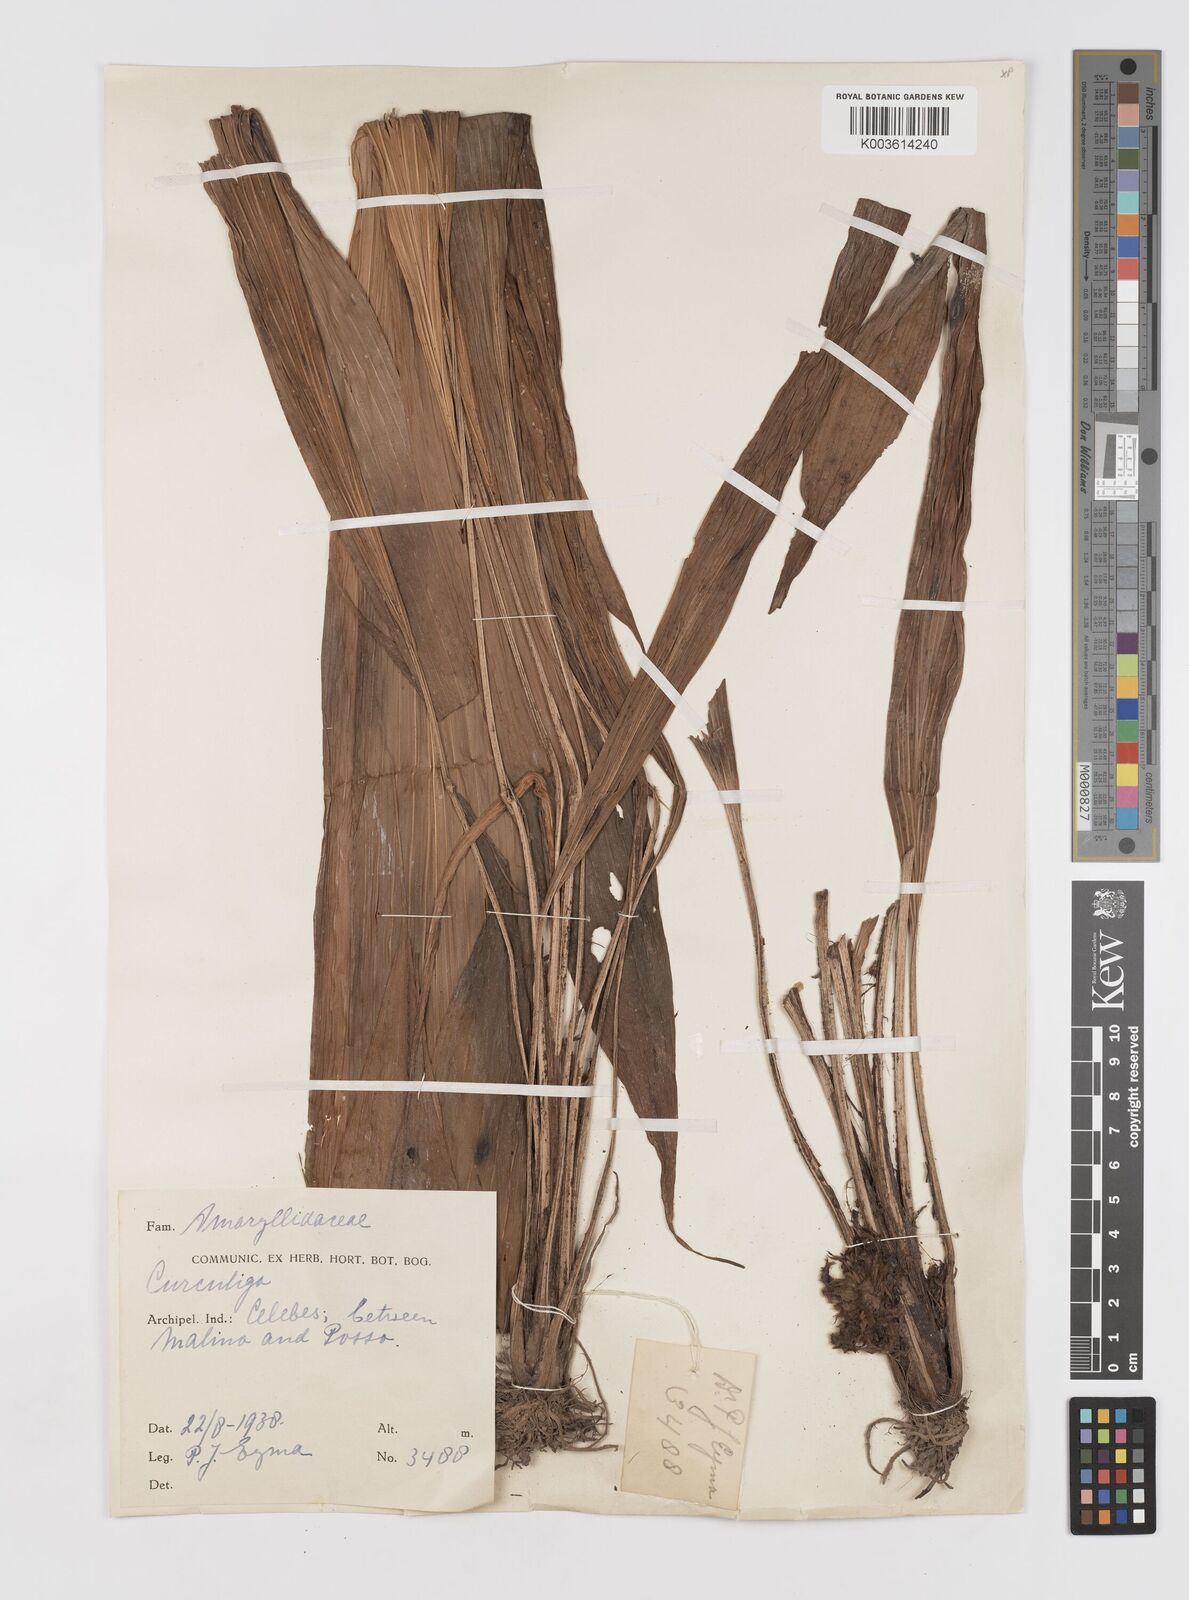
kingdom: Plantae
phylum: Tracheophyta
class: Liliopsida
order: Asparagales
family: Hypoxidaceae
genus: Curculigo
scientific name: Curculigo
